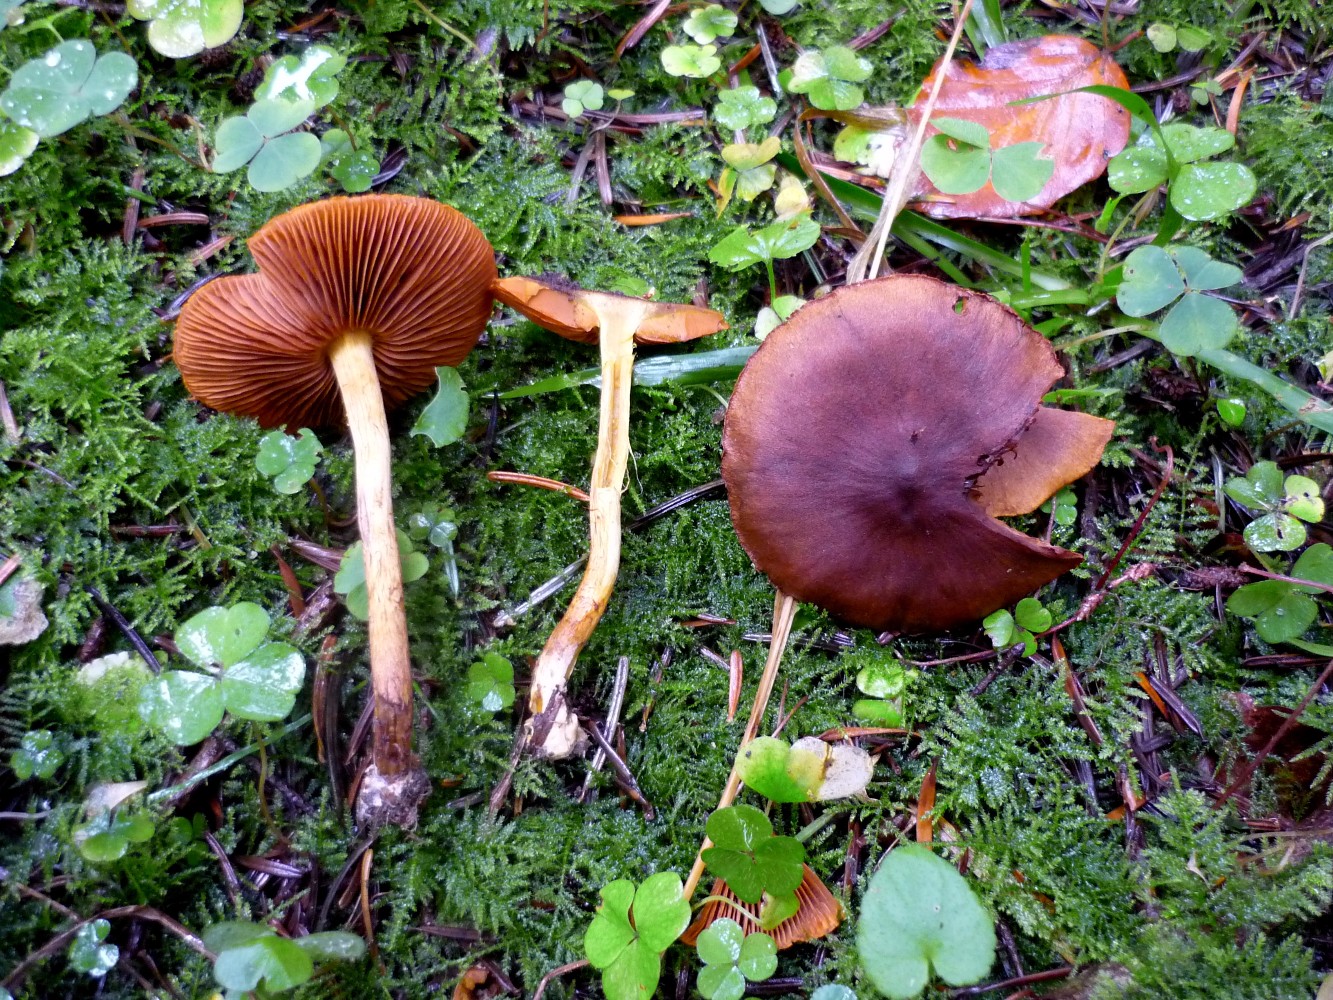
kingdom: Fungi
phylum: Basidiomycota
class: Agaricomycetes
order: Agaricales
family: Cortinariaceae
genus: Cortinarius
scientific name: Cortinarius cinnamomeus
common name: kanel-slørhat
